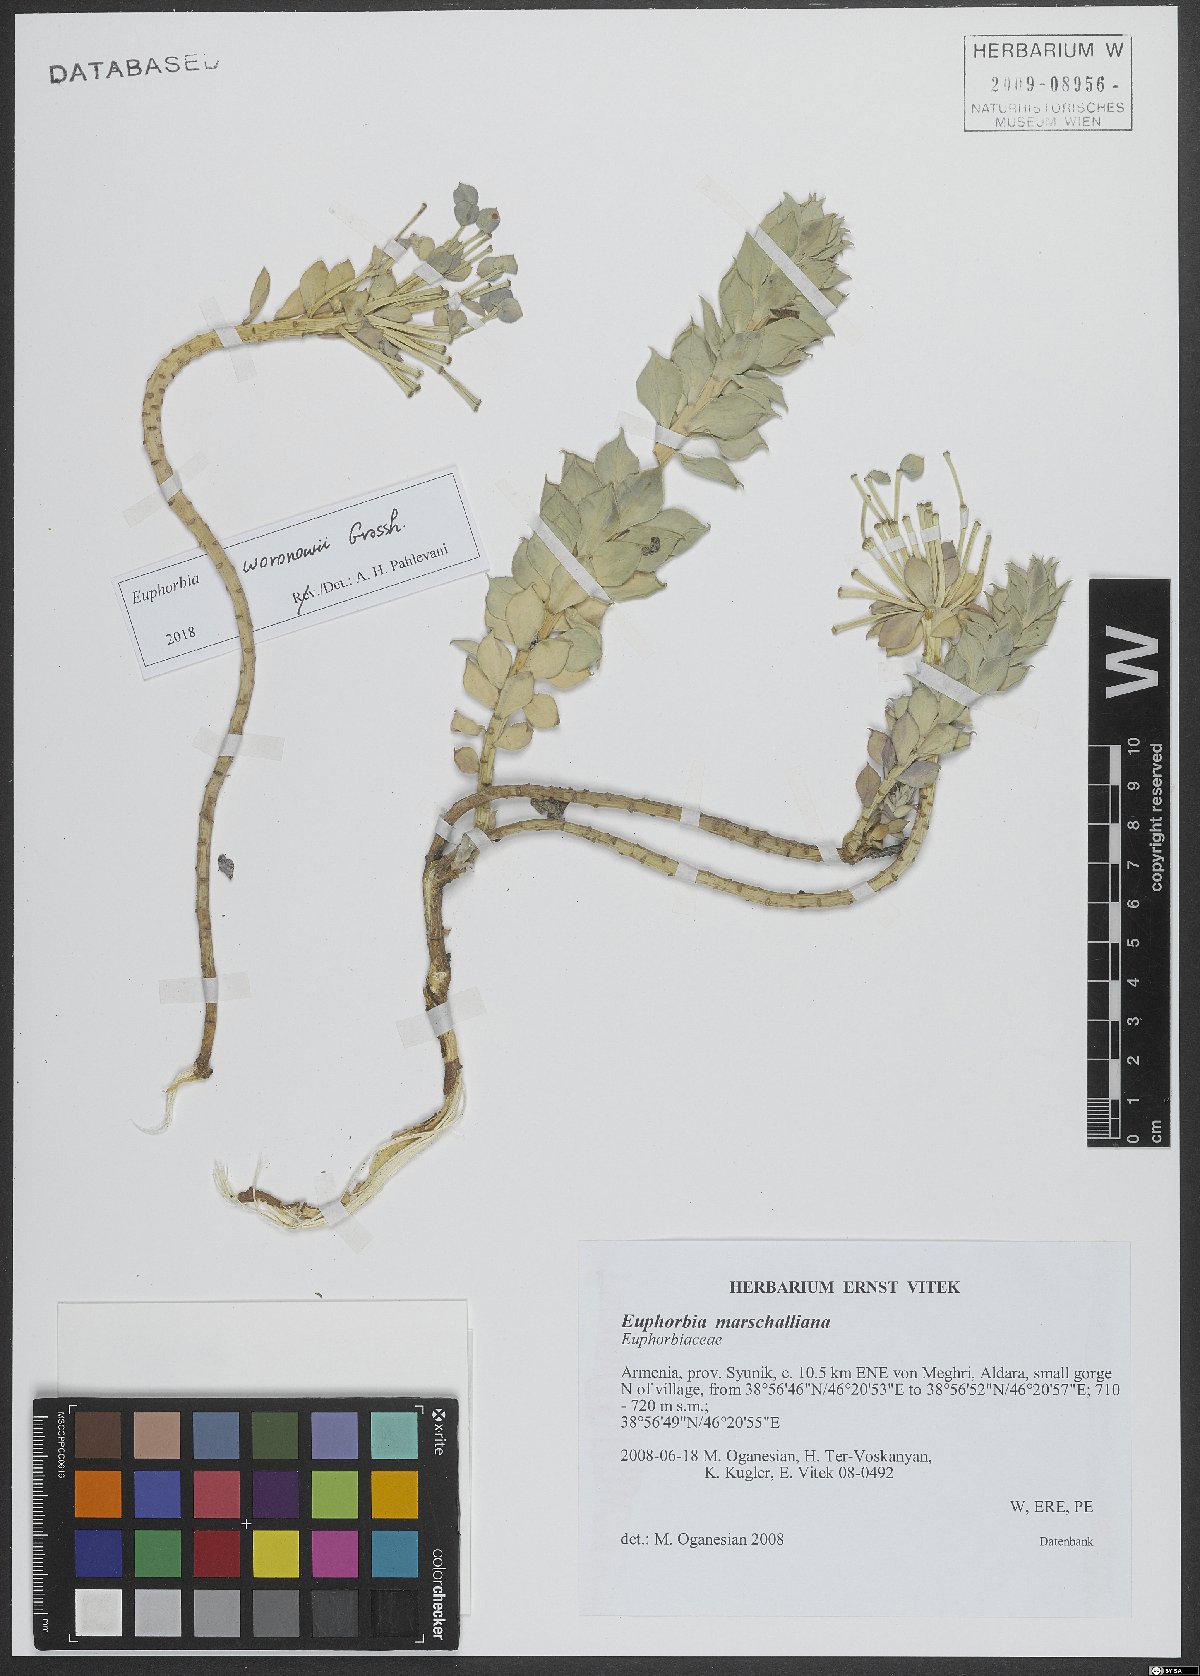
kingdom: Plantae
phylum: Tracheophyta
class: Magnoliopsida
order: Malpighiales
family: Euphorbiaceae
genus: Euphorbia
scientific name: Euphorbia marschalliana
